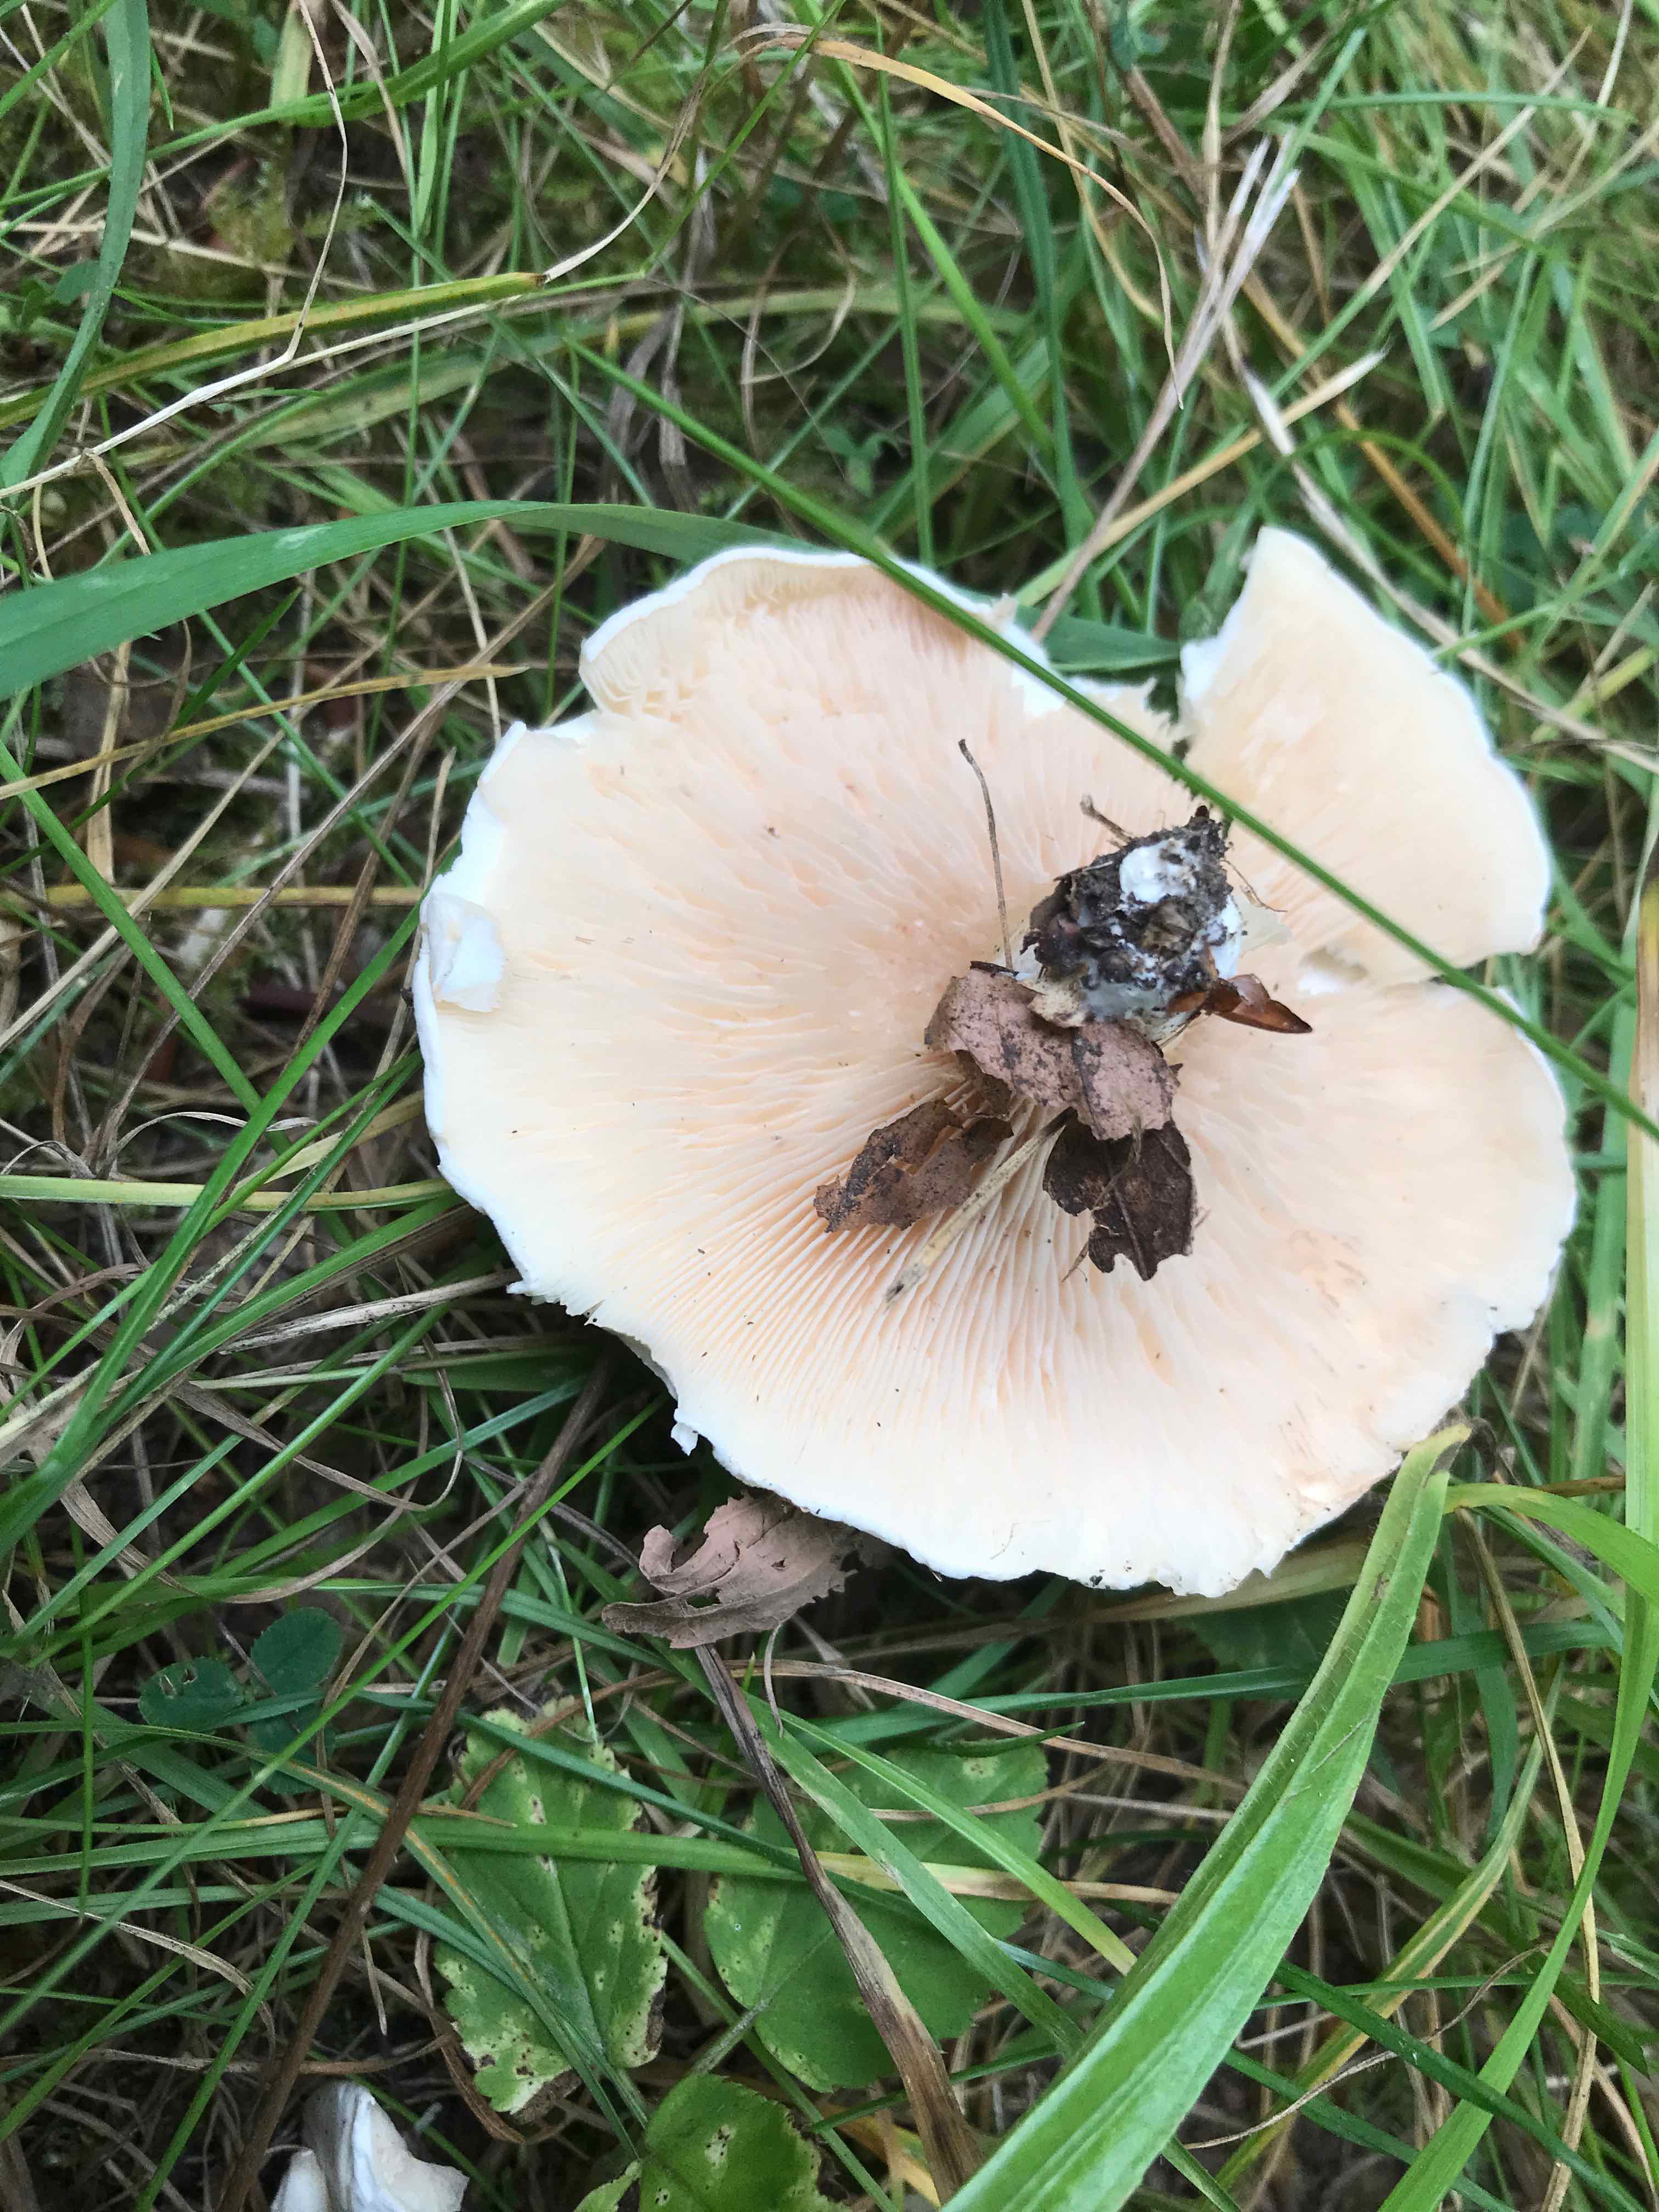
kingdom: Fungi
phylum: Basidiomycota
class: Agaricomycetes
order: Agaricales
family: Entolomataceae
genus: Clitopilus
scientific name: Clitopilus prunulus
